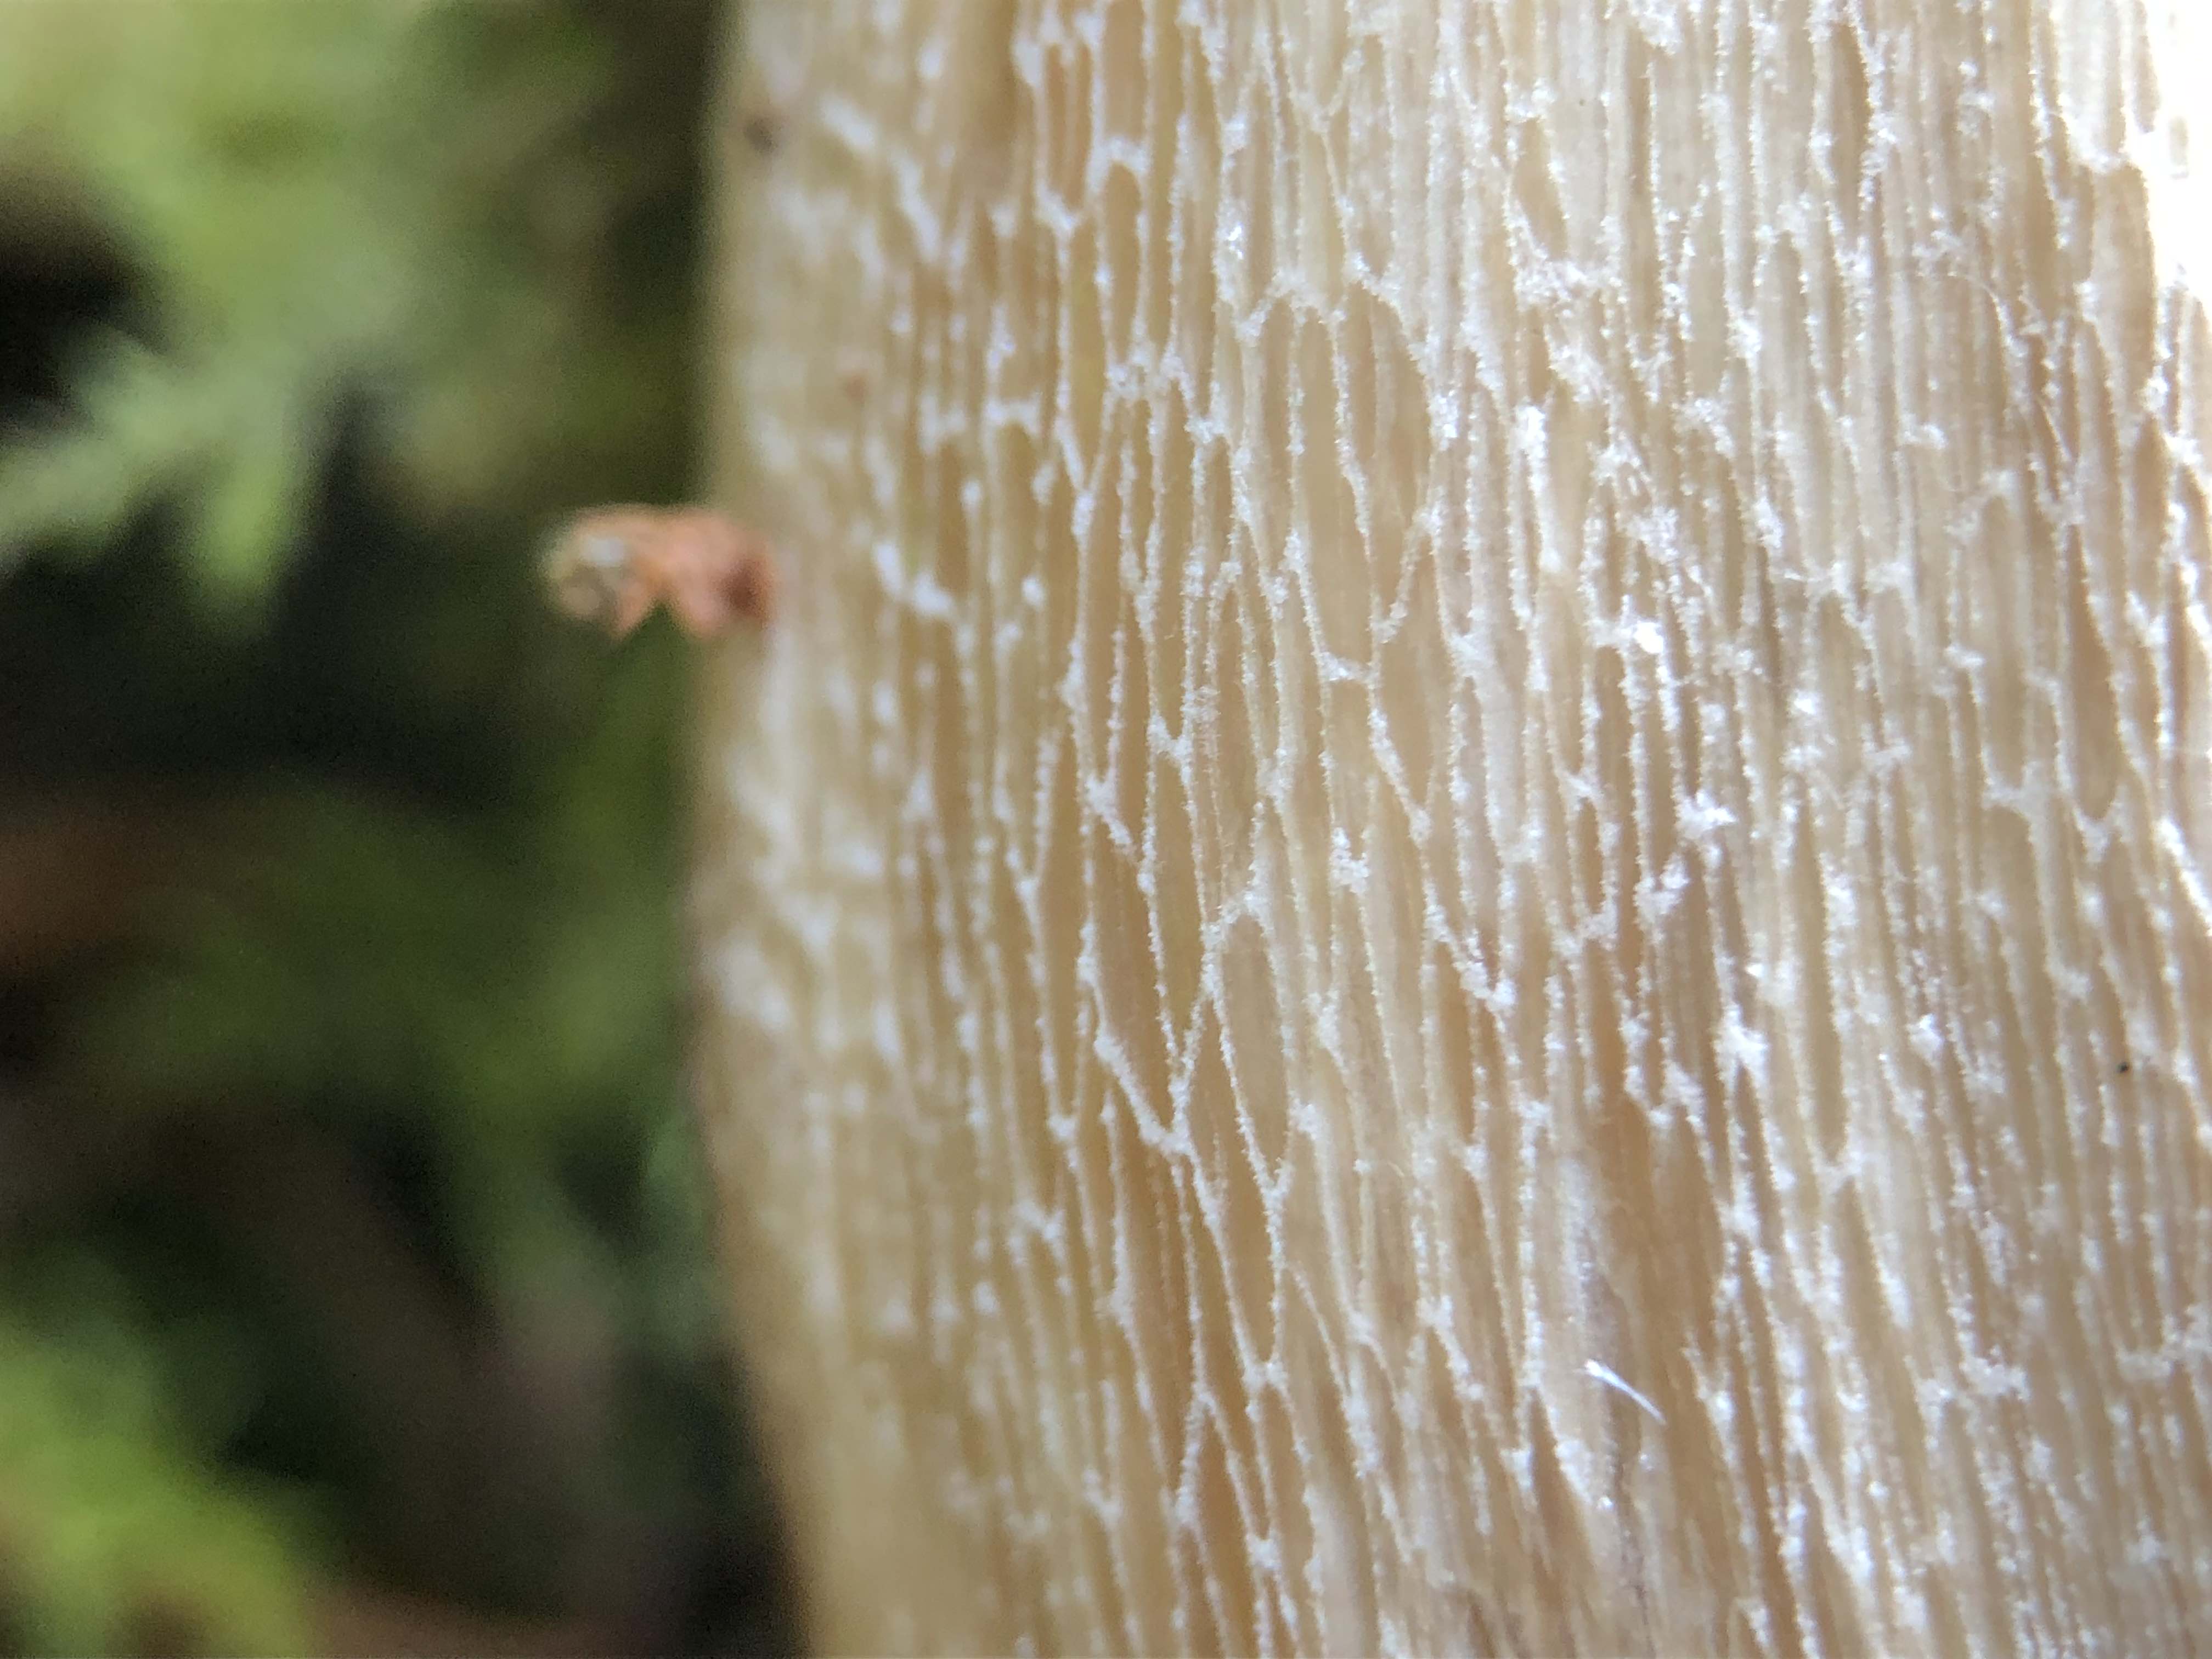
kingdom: Fungi
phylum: Basidiomycota
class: Agaricomycetes
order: Boletales
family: Boletaceae
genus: Boletus
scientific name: Boletus edulis
